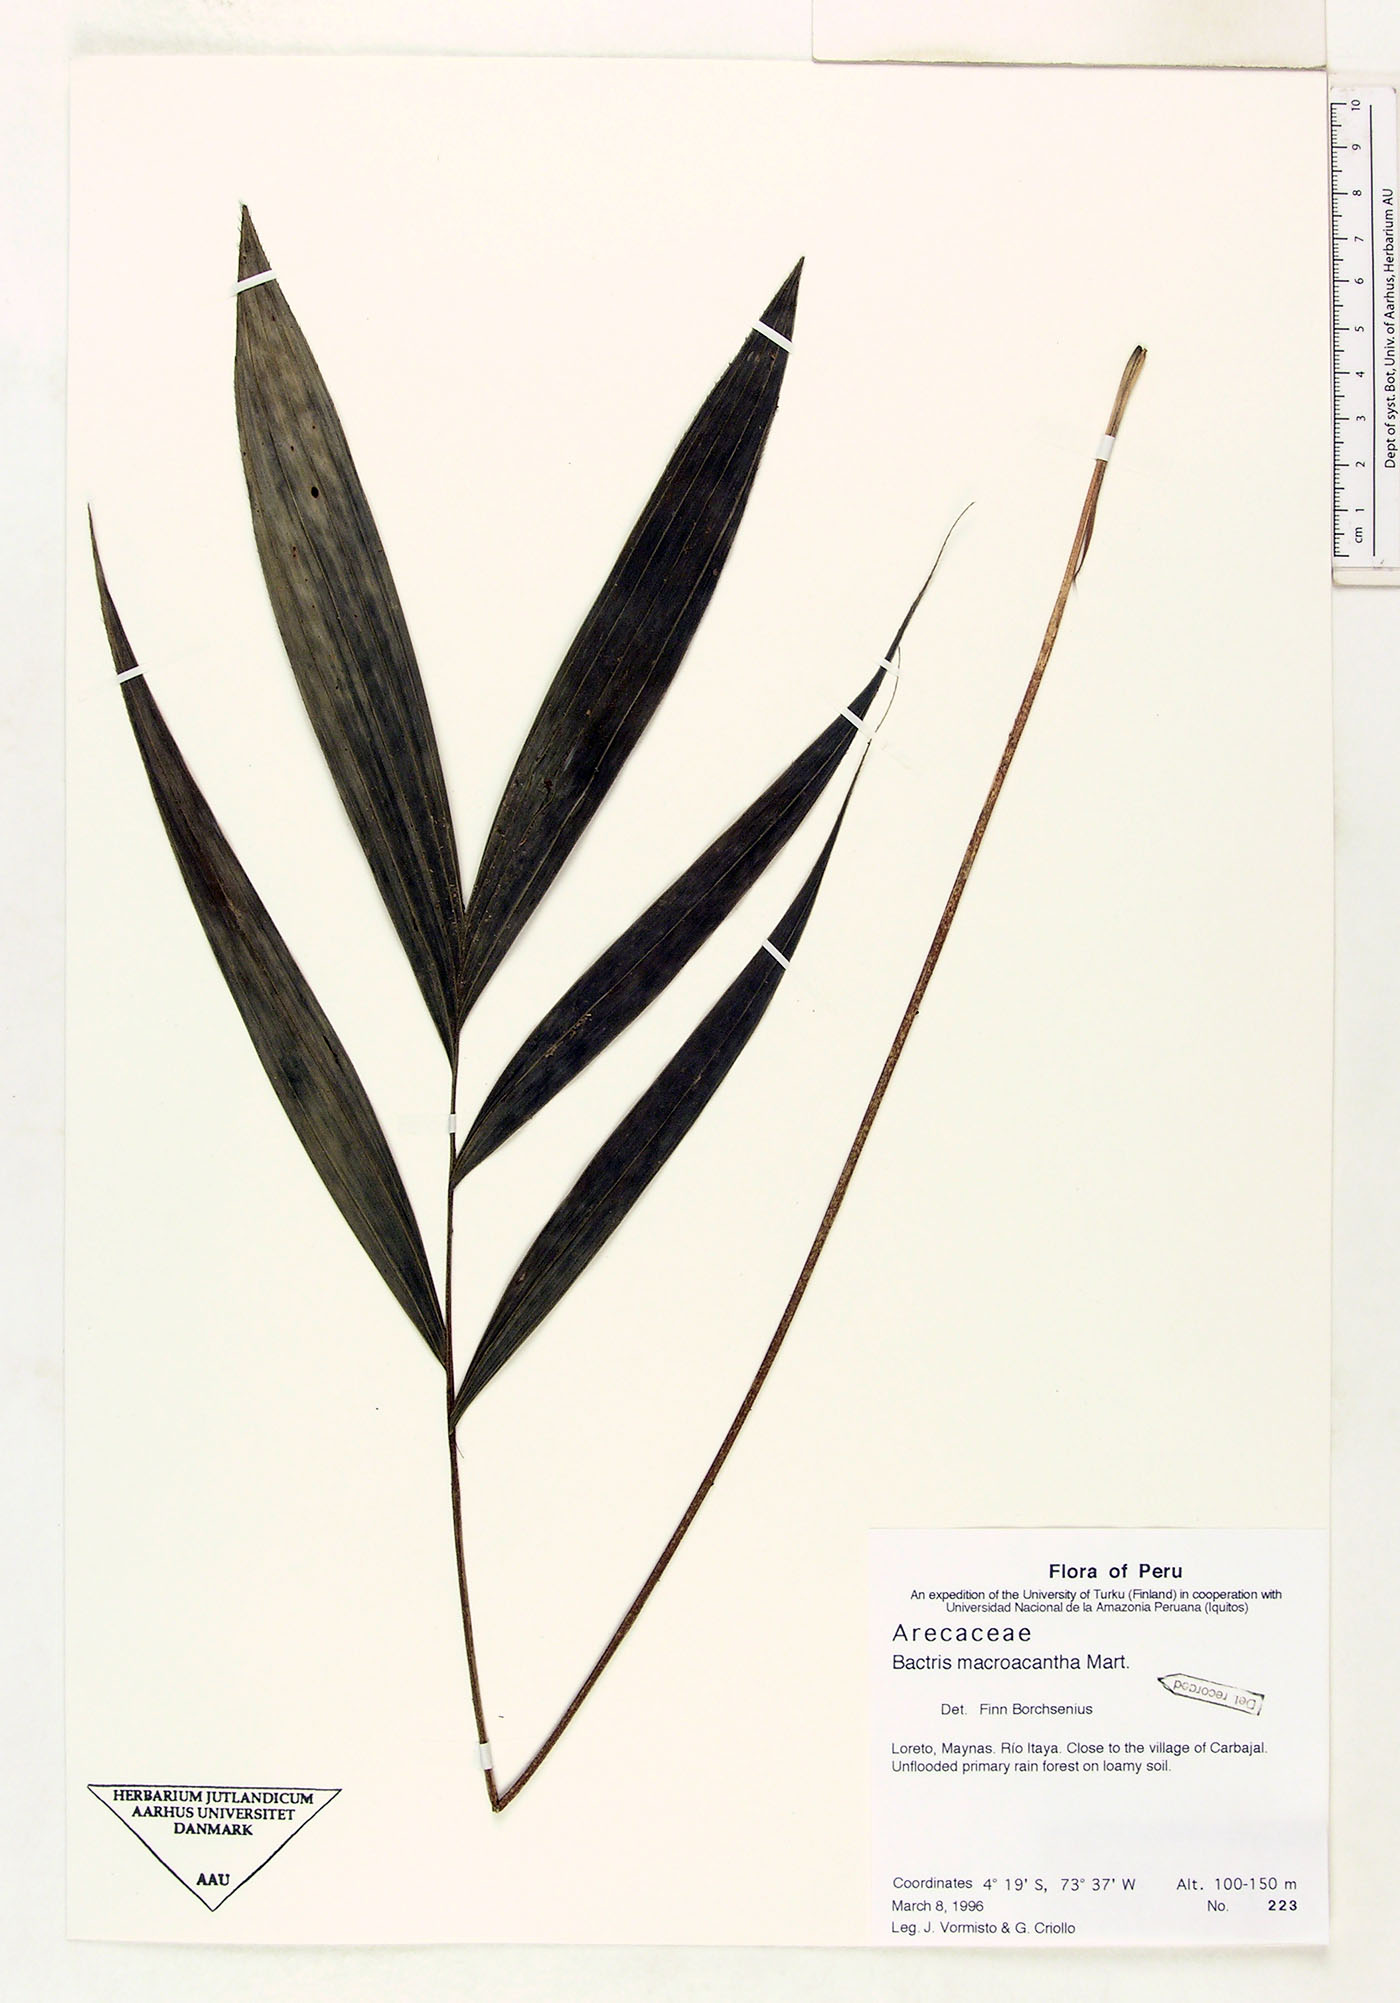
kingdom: Plantae
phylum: Tracheophyta
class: Liliopsida
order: Arecales
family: Arecaceae
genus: Bactris
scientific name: Bactris macroacantha
